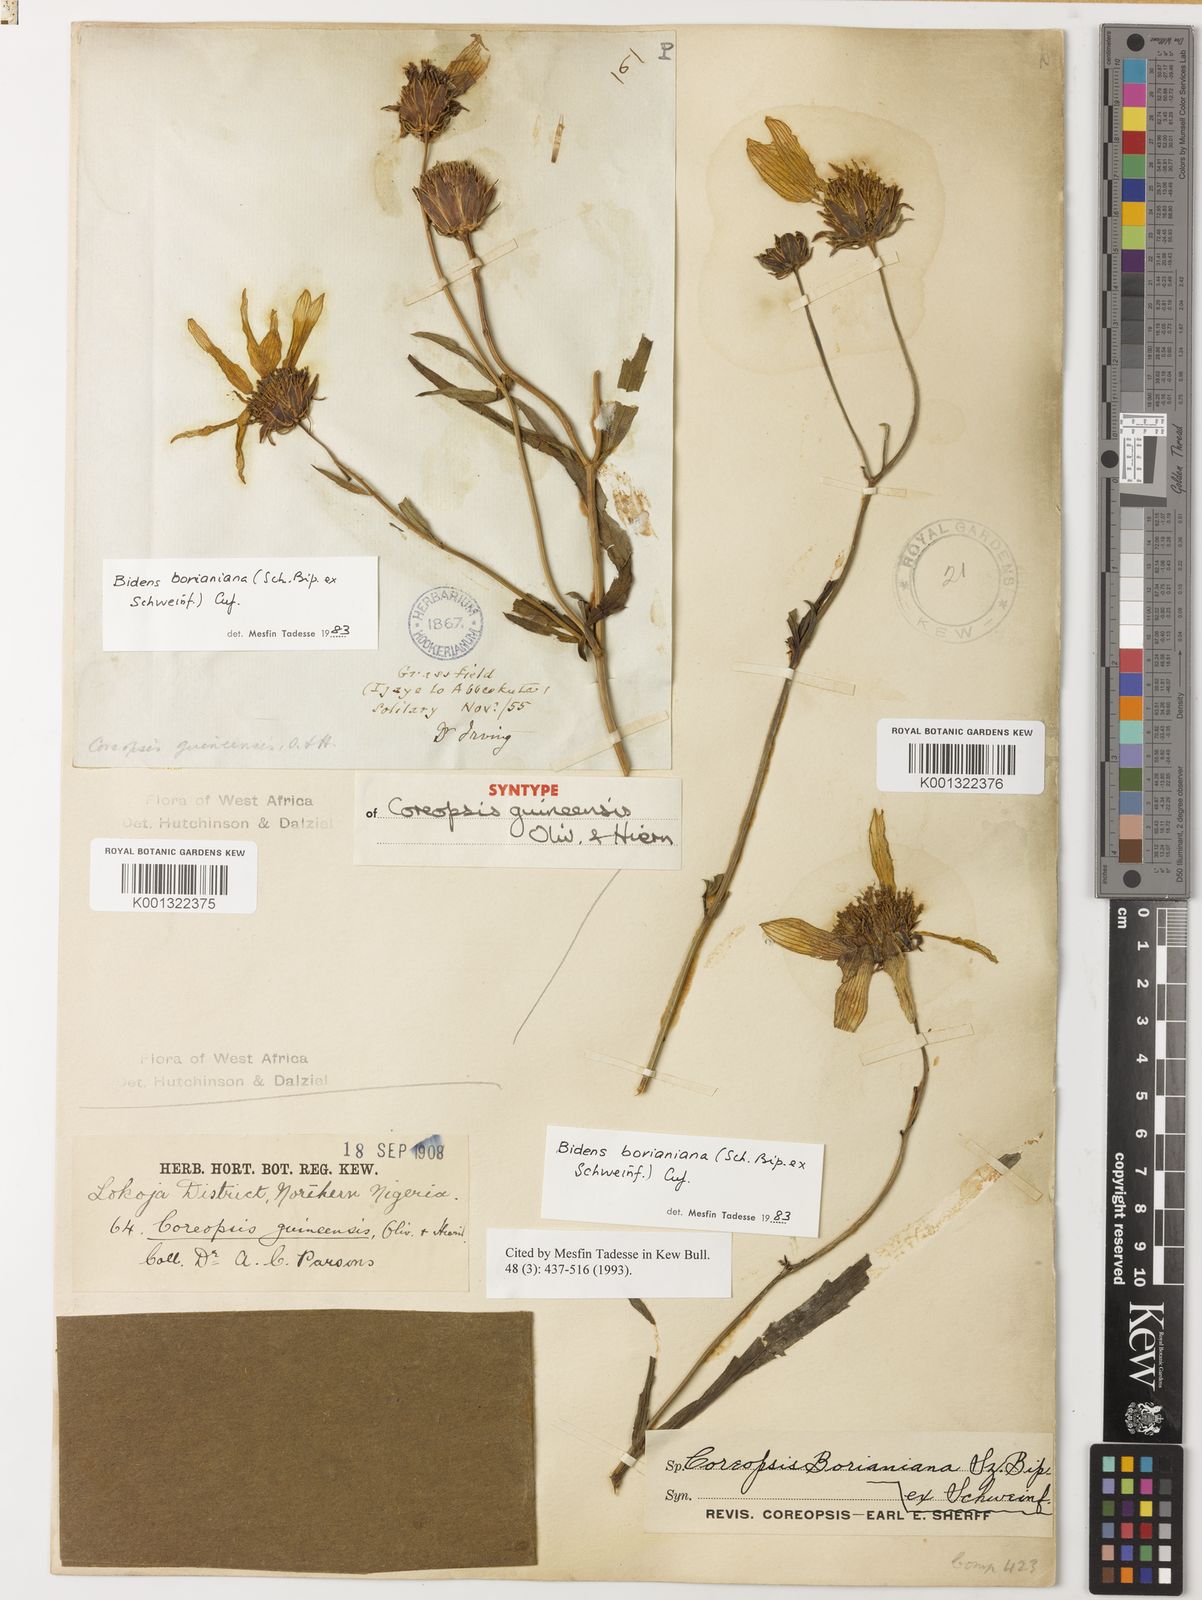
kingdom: Plantae
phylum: Tracheophyta
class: Magnoliopsida
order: Asterales
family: Asteraceae
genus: Bidens
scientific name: Bidens borianiana
